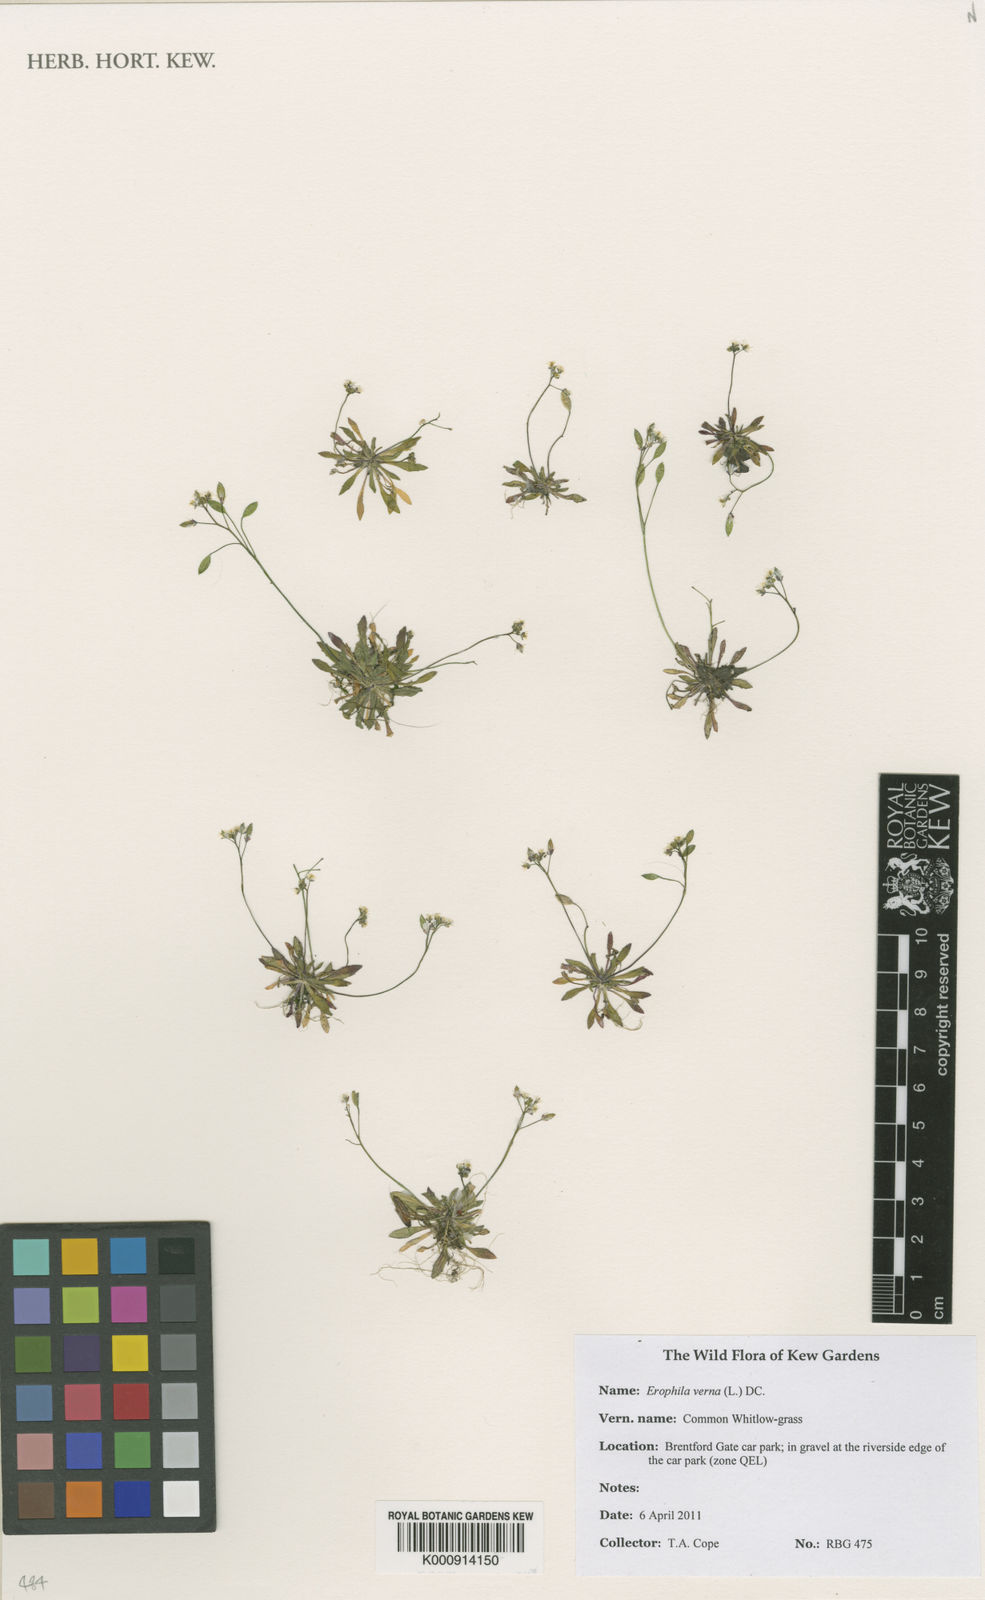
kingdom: Plantae
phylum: Tracheophyta
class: Magnoliopsida
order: Brassicales
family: Brassicaceae
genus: Draba
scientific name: Draba verna
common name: Spring draba
